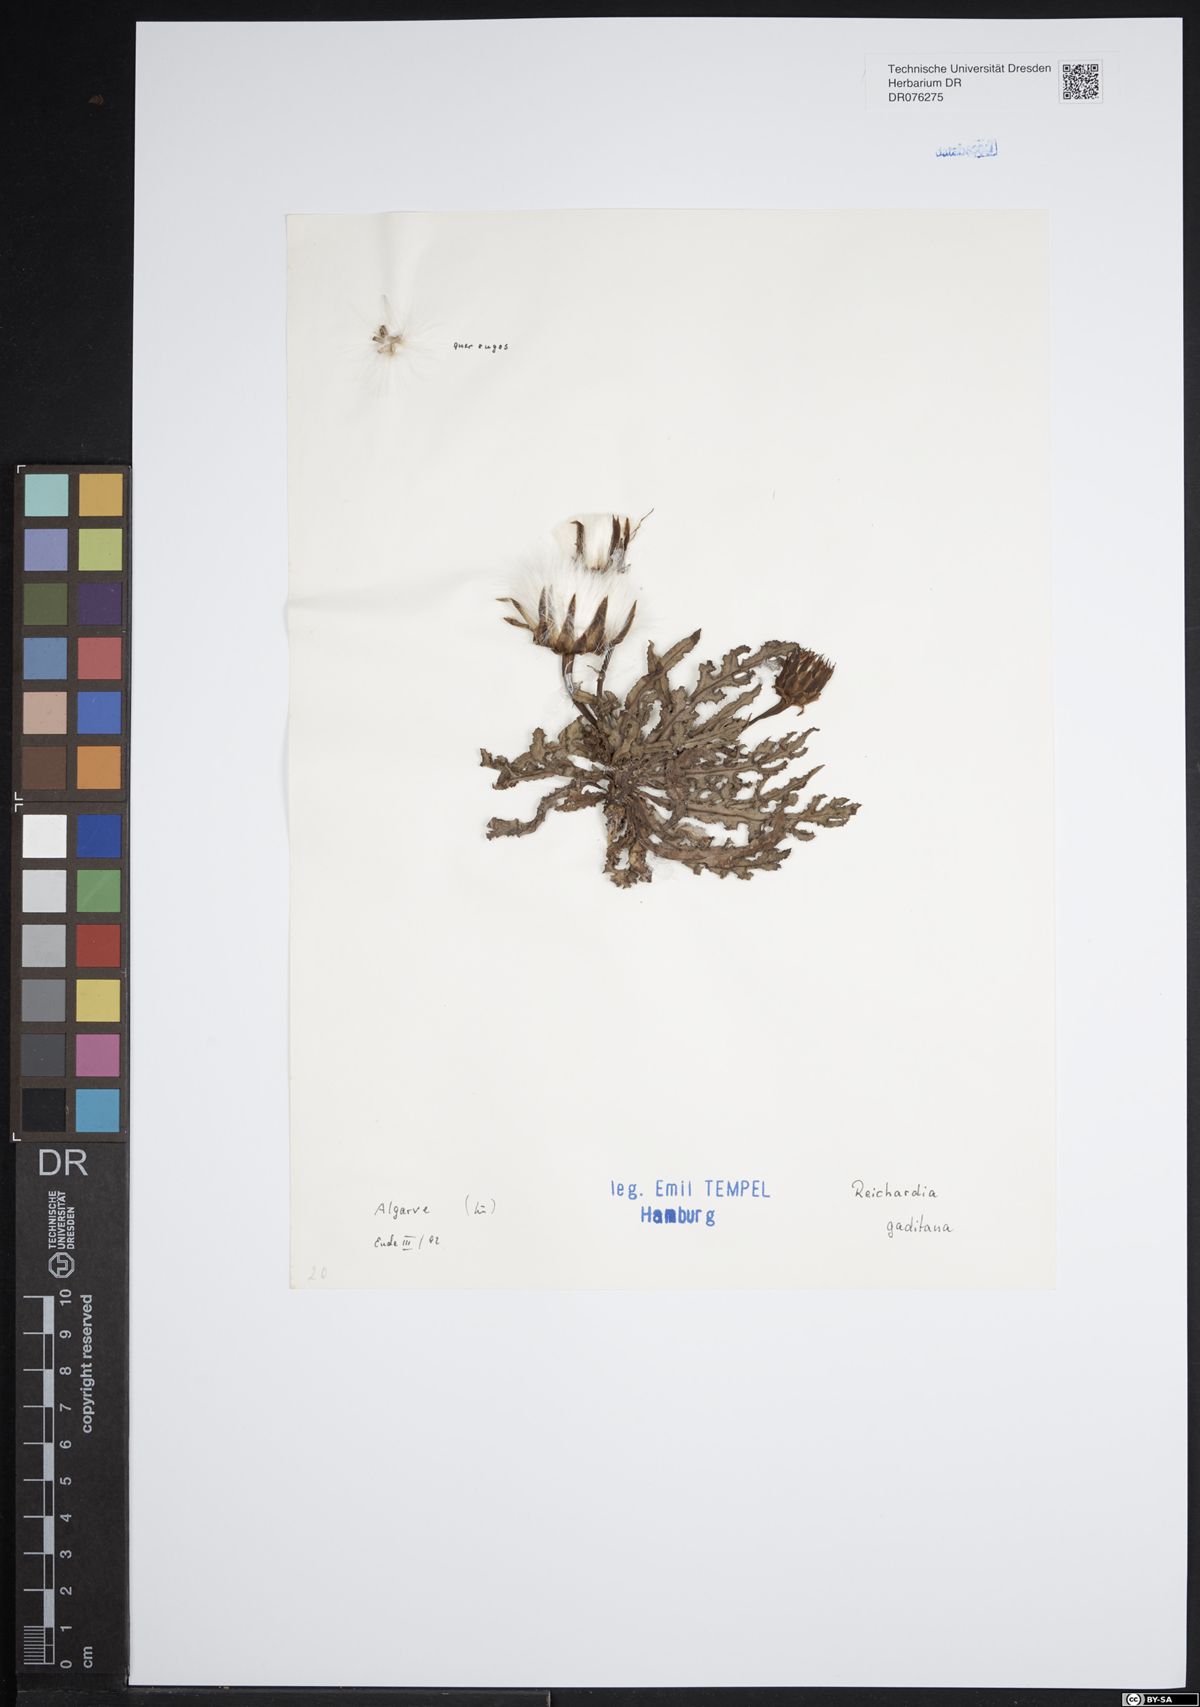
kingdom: Plantae
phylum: Tracheophyta
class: Magnoliopsida
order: Asterales
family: Asteraceae
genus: Reichardia
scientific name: Reichardia gaditana
